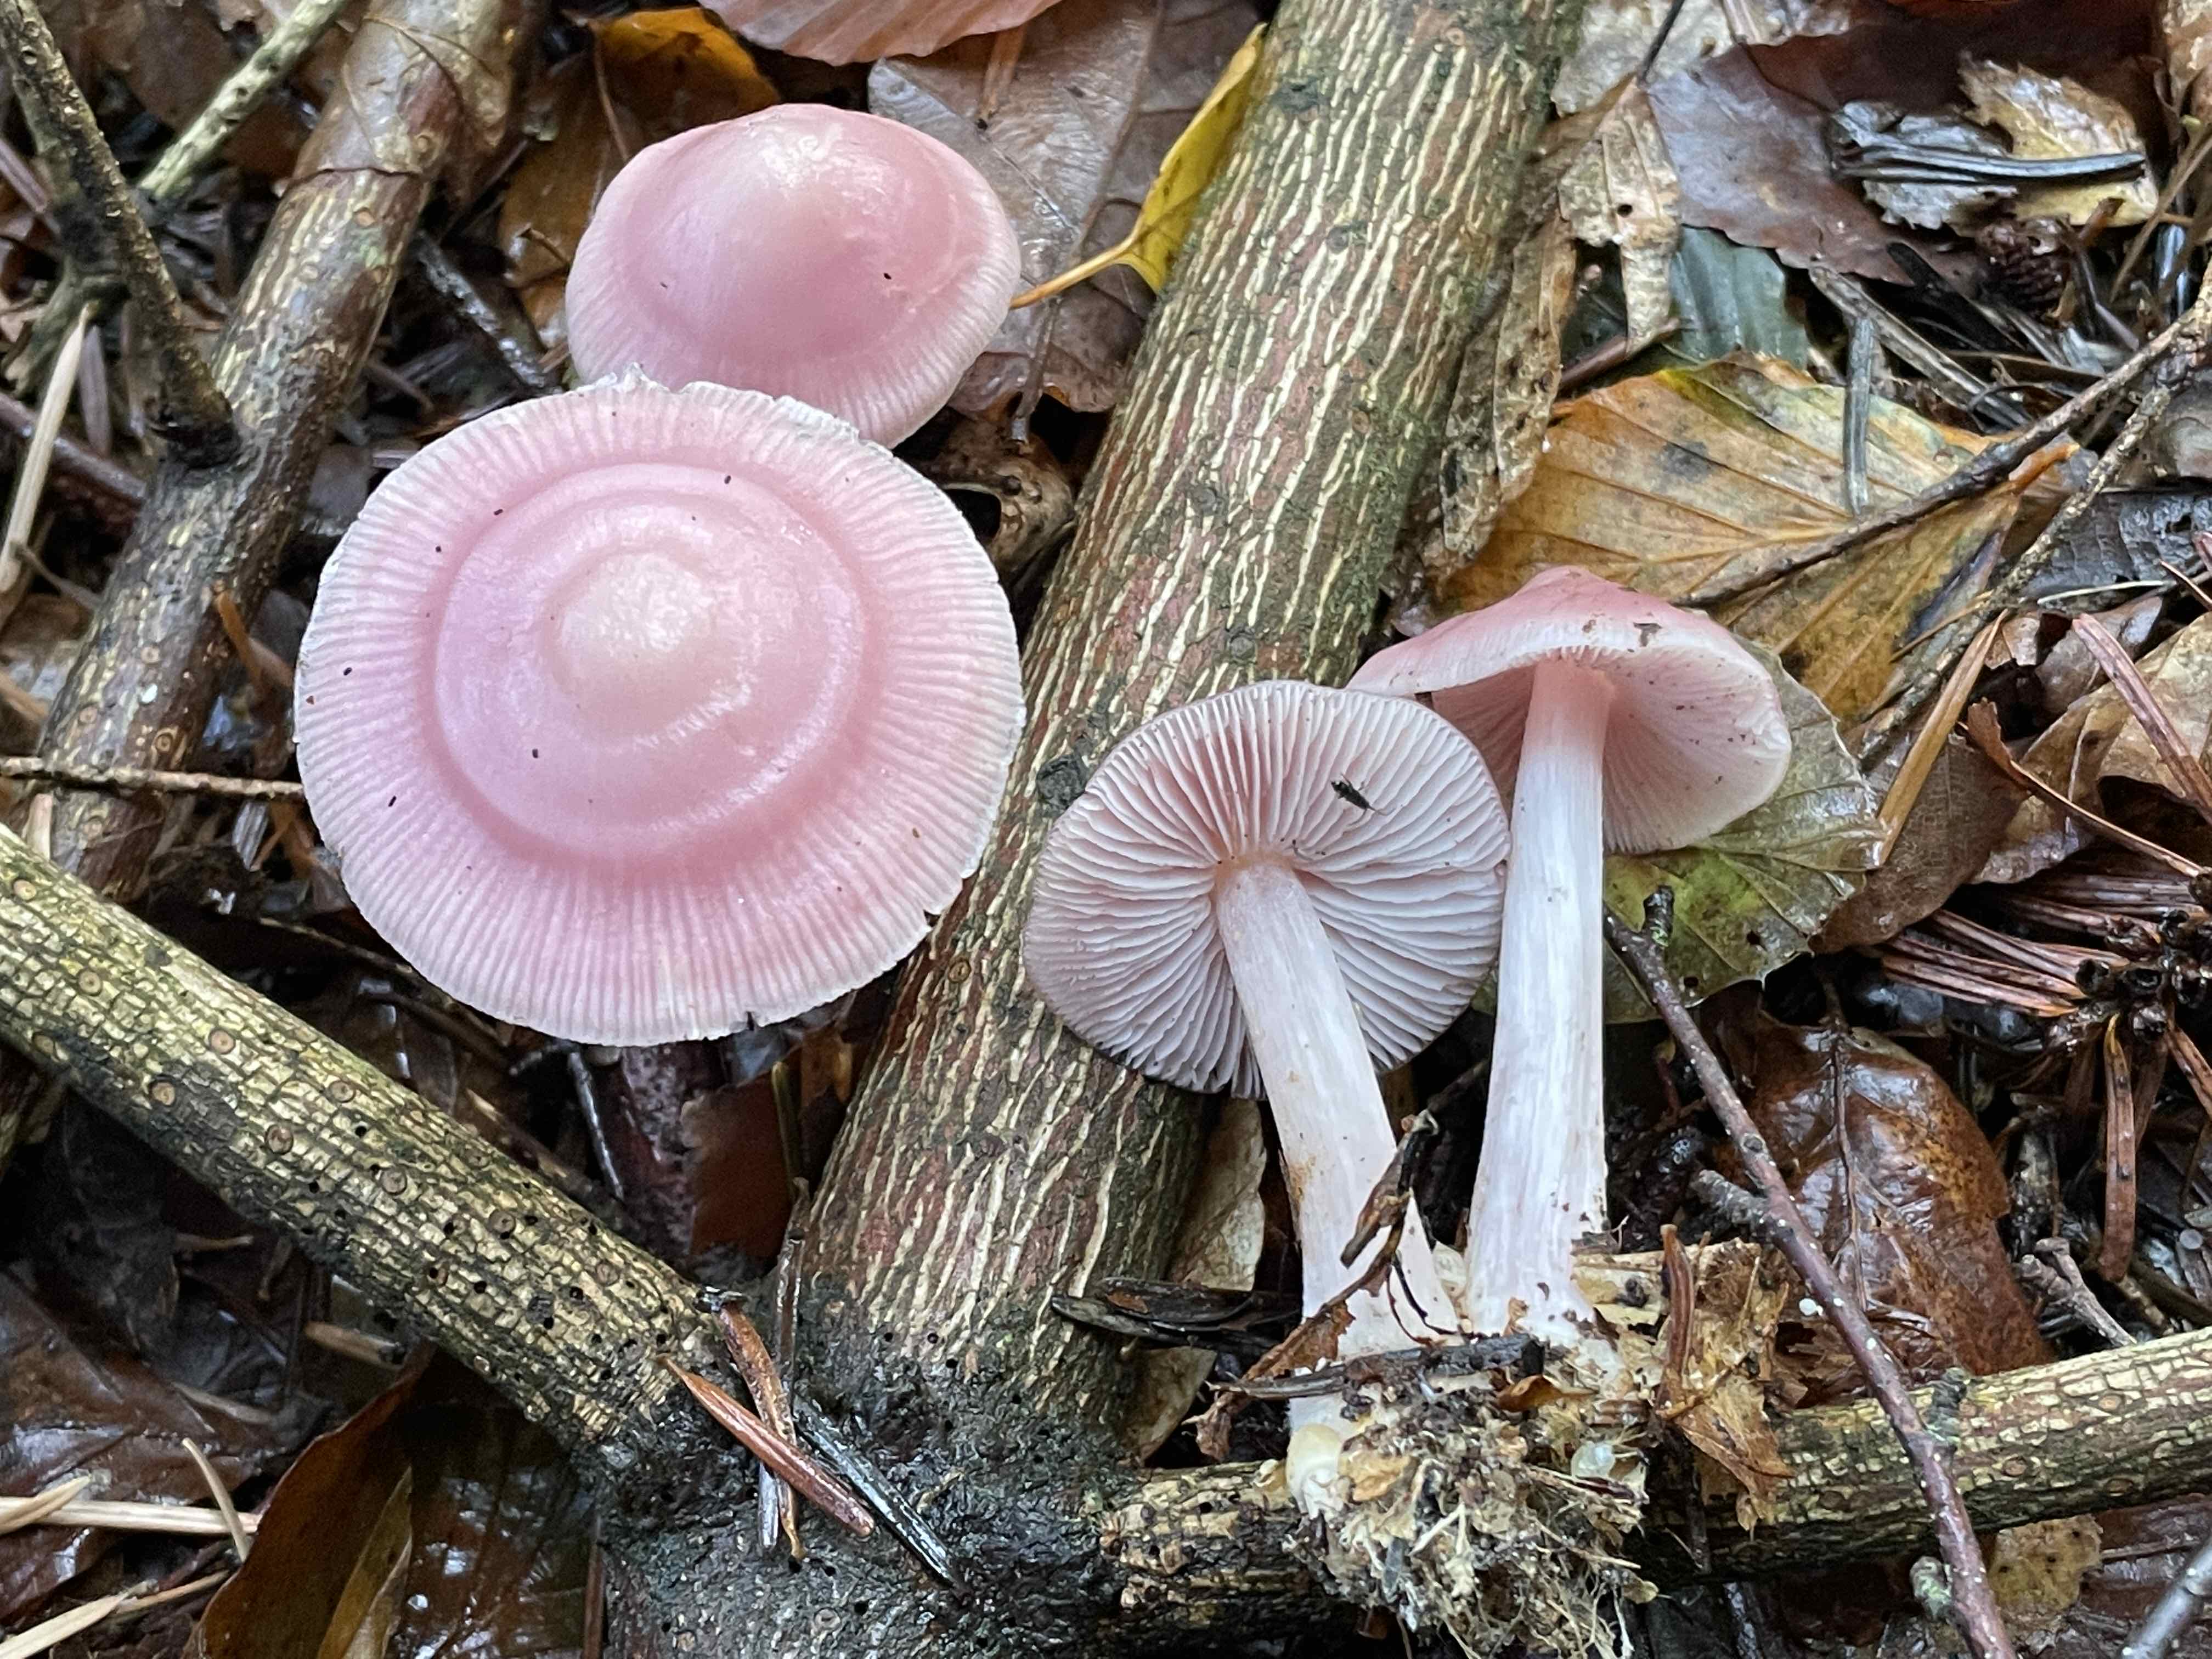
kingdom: Fungi
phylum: Basidiomycota
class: Agaricomycetes
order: Agaricales
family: Mycenaceae
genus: Mycena
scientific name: Mycena rosea
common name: rosa huesvamp
